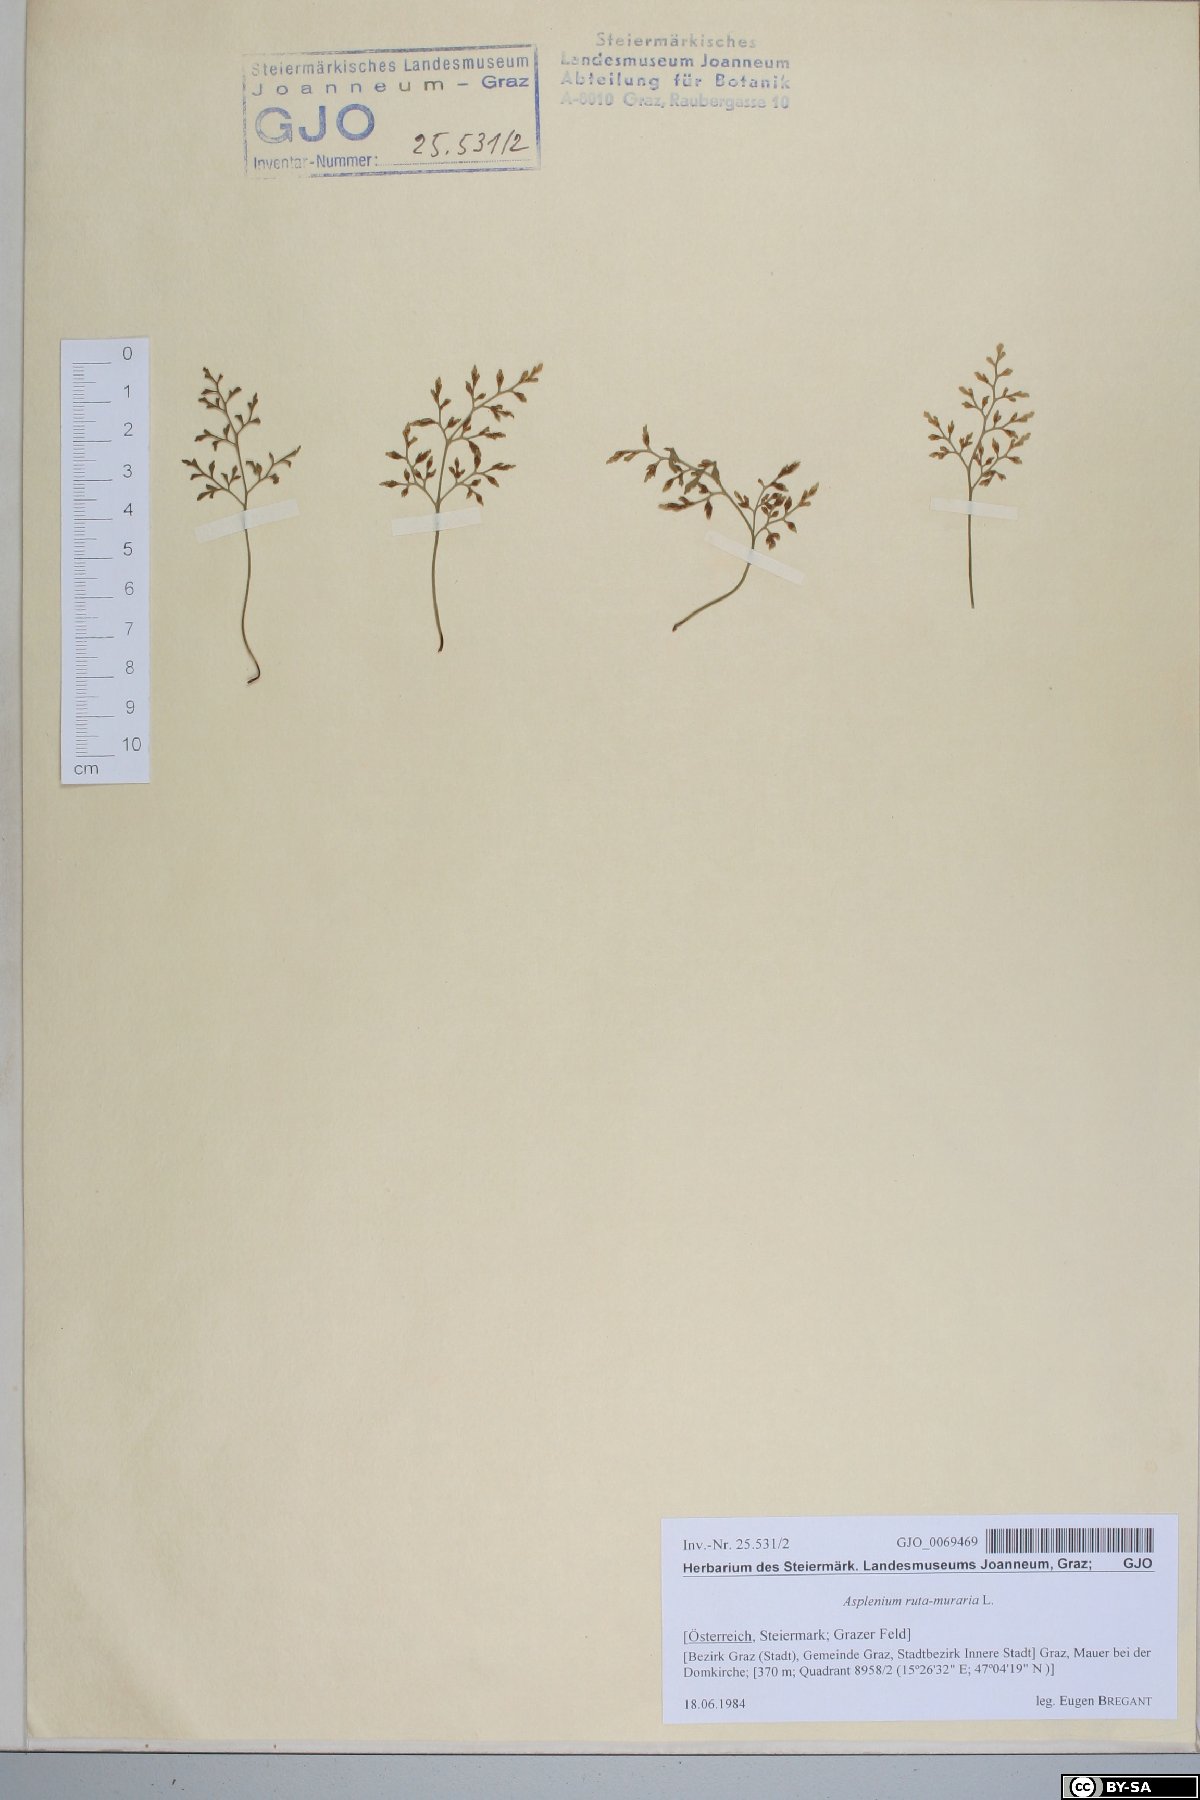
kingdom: Plantae
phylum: Tracheophyta
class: Polypodiopsida
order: Polypodiales
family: Aspleniaceae
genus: Asplenium
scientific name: Asplenium ruta-muraria
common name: Wall-rue
